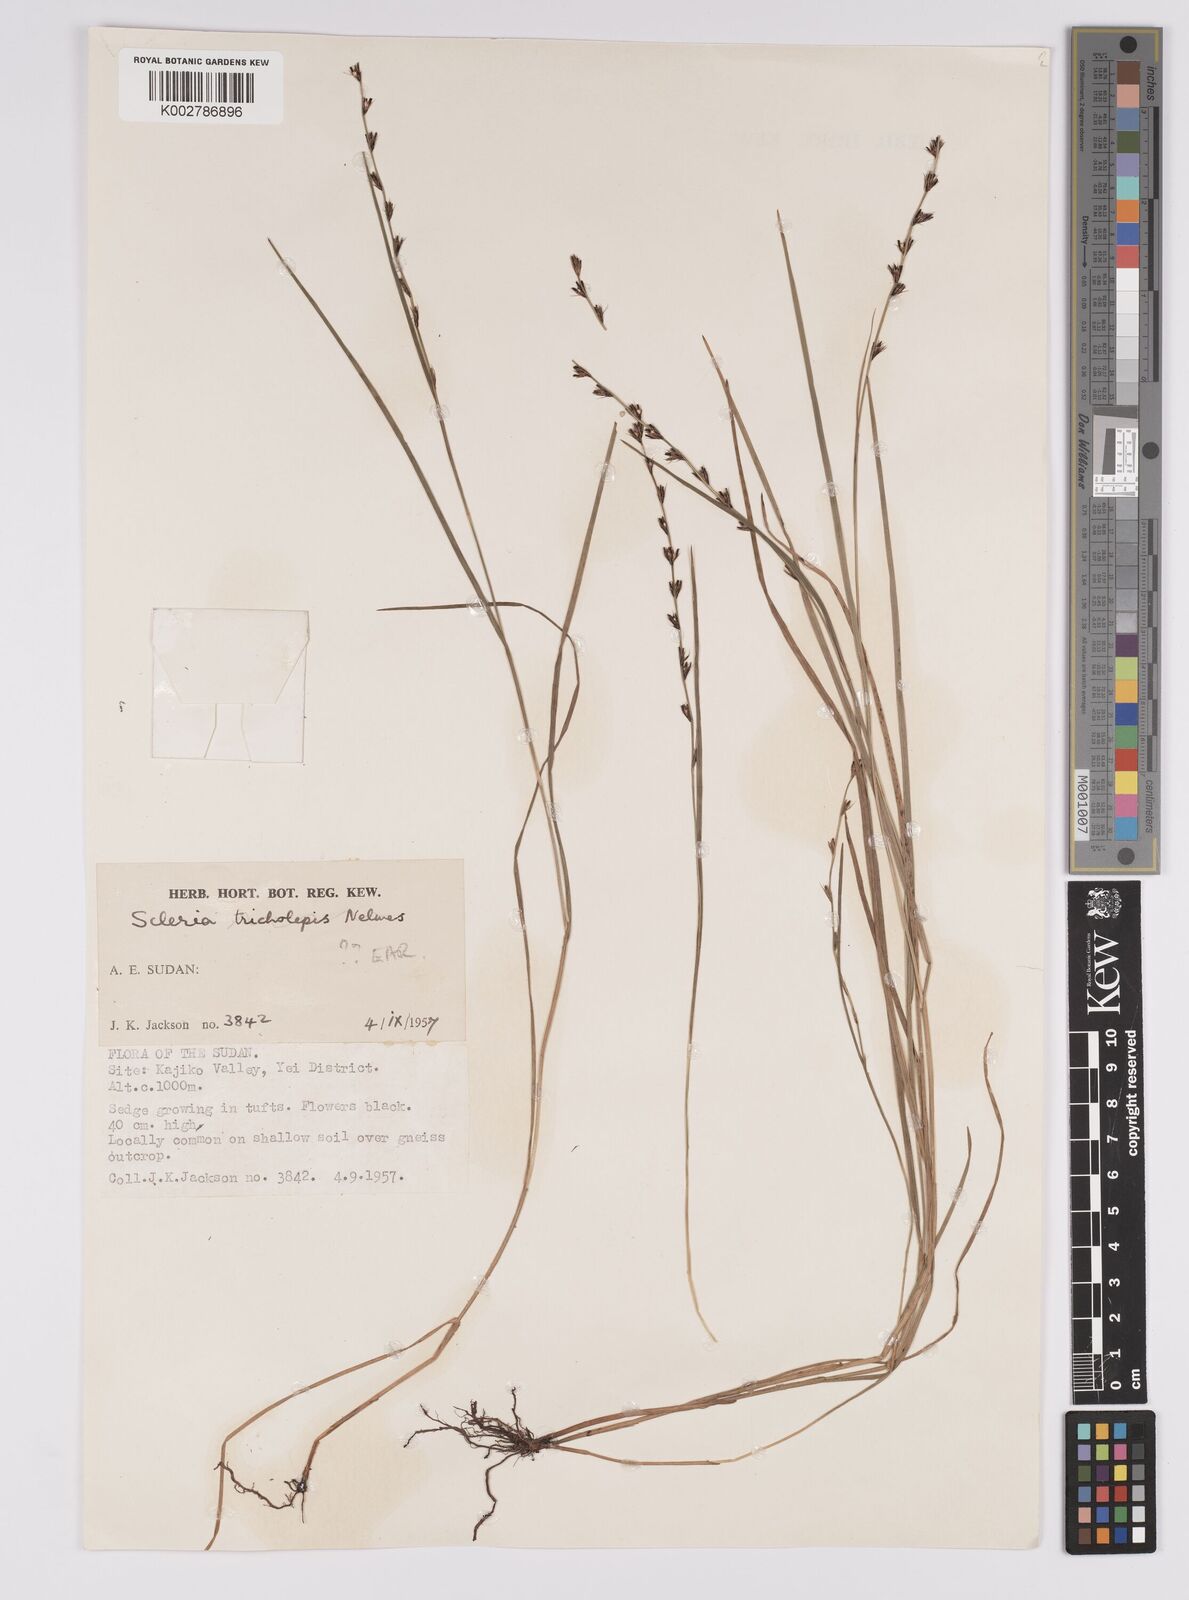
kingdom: Plantae
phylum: Tracheophyta
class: Liliopsida
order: Poales
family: Cyperaceae
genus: Scleria
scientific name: Scleria
